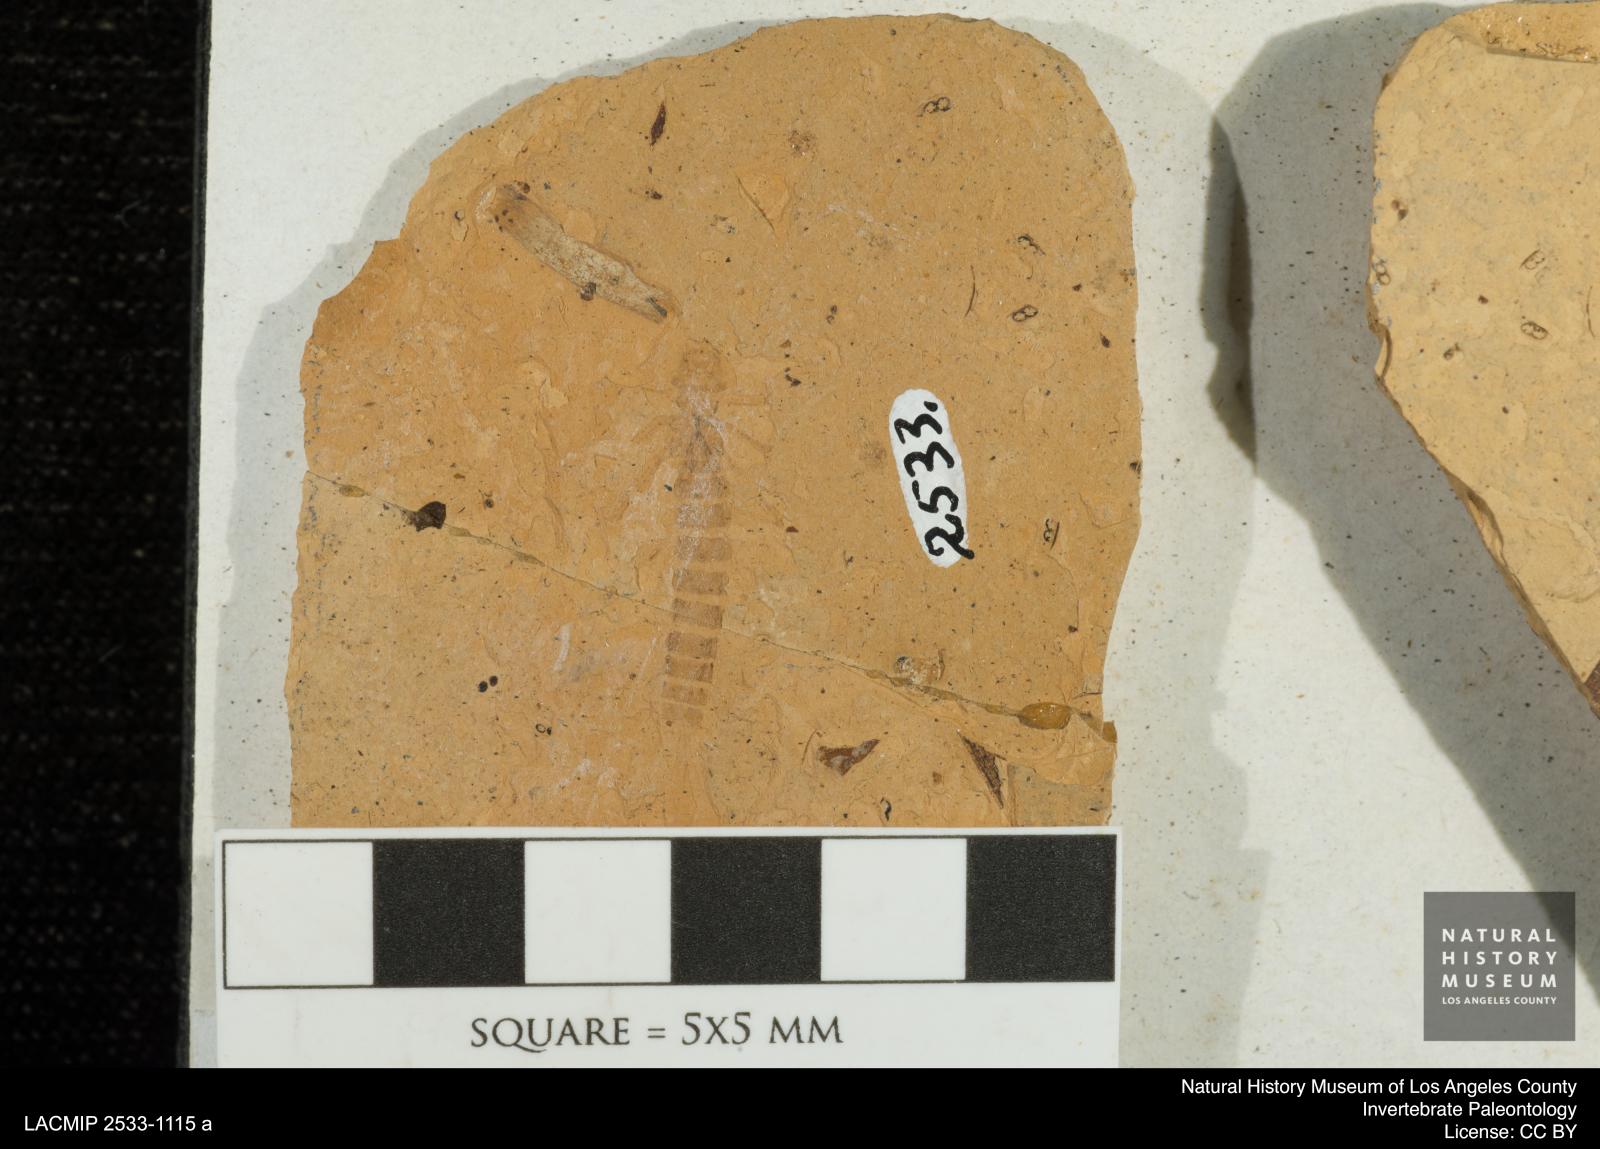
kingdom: Animalia
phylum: Arthropoda
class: Insecta
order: Odonata
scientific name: Odonata
